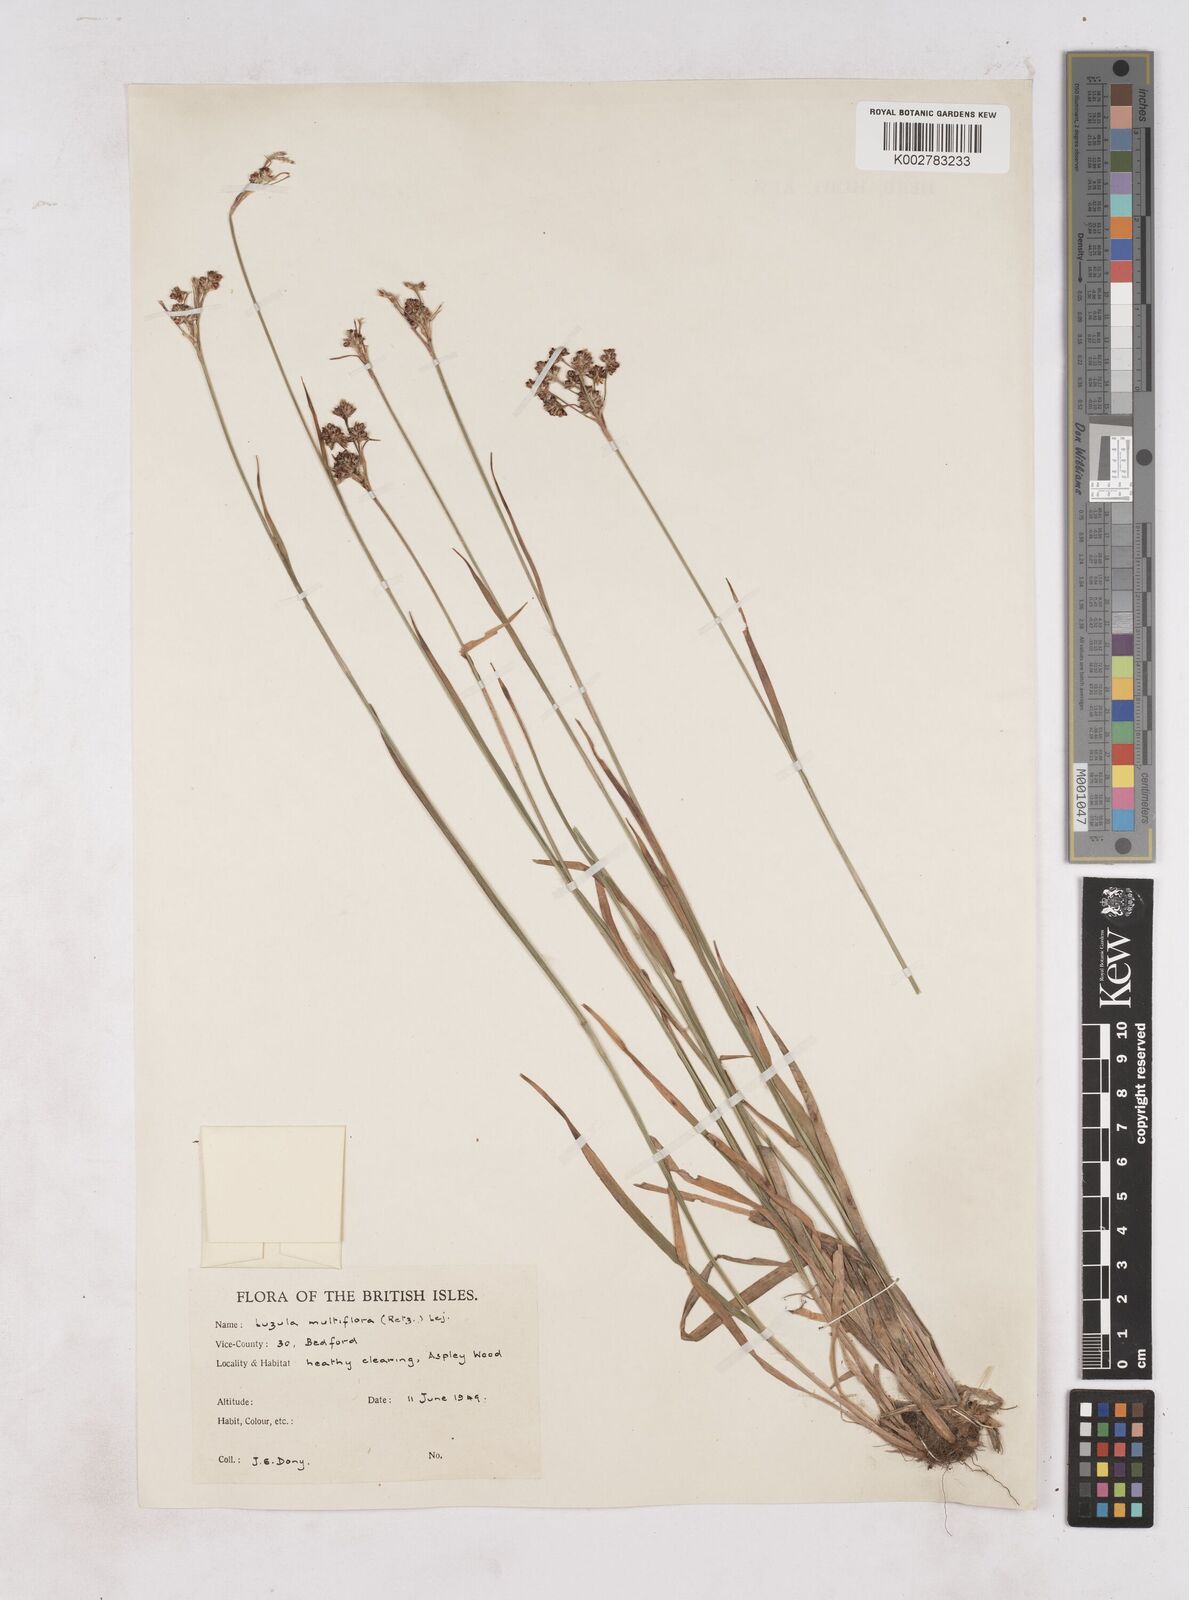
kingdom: Plantae
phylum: Tracheophyta
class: Liliopsida
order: Poales
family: Juncaceae
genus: Luzula
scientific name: Luzula multiflora
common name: Heath wood-rush
